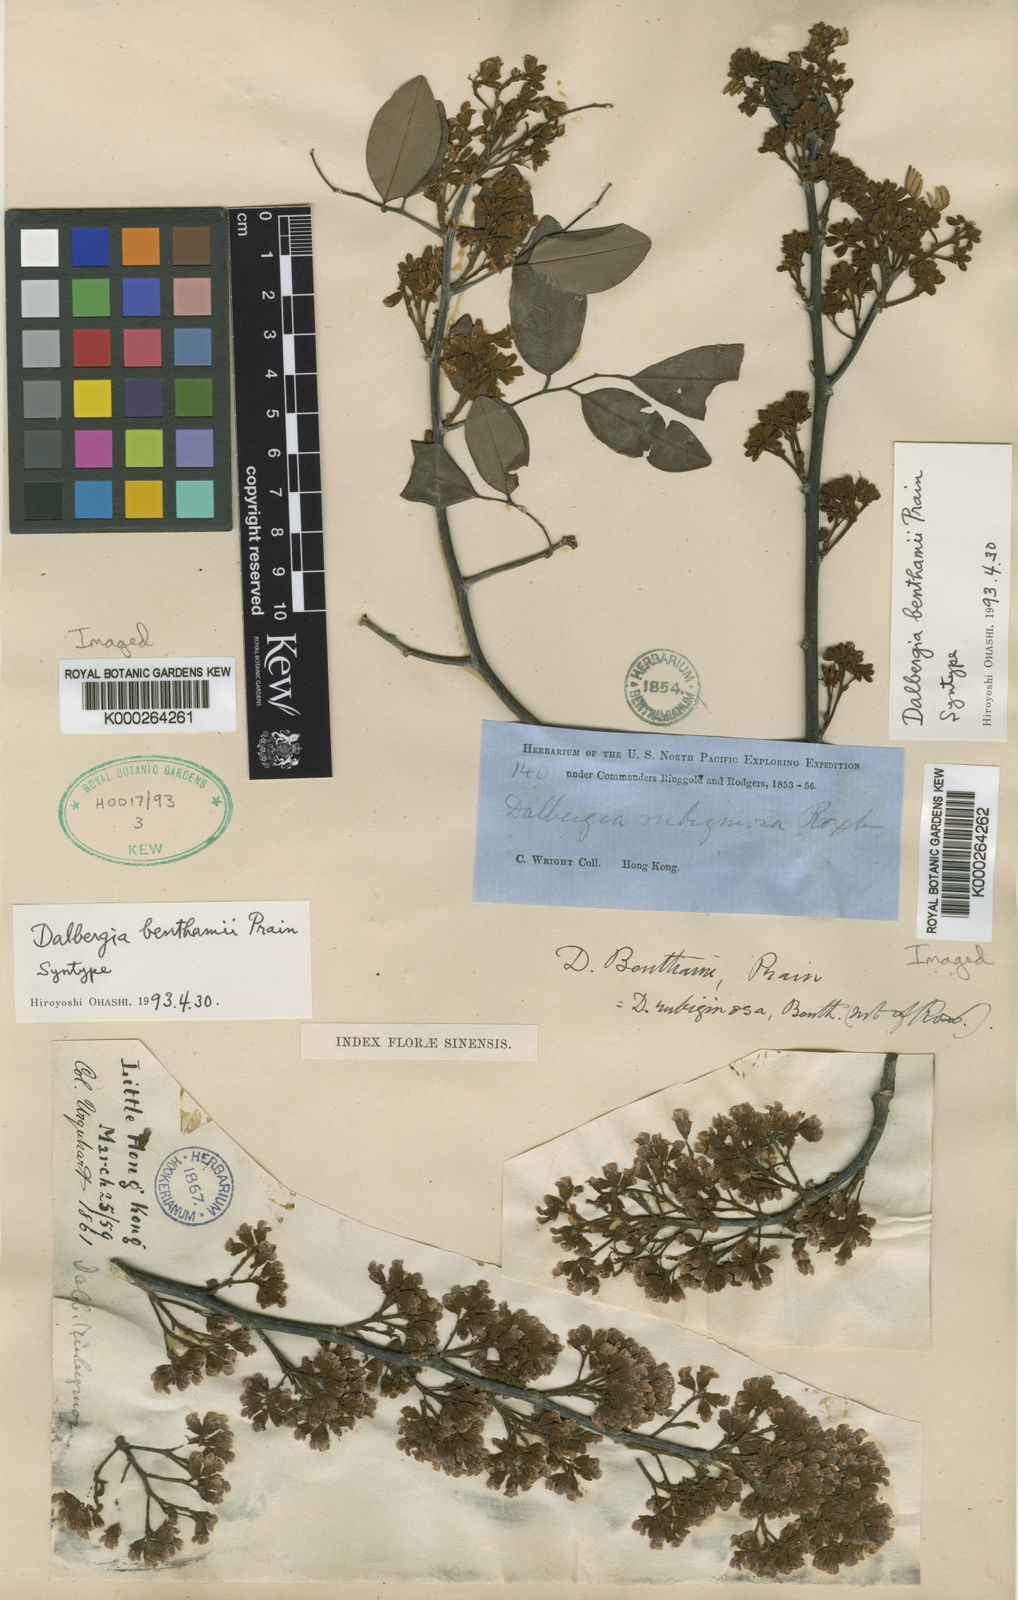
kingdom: Plantae
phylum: Tracheophyta
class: Magnoliopsida
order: Fabales
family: Fabaceae
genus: Dalbergia
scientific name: Dalbergia benthamii
